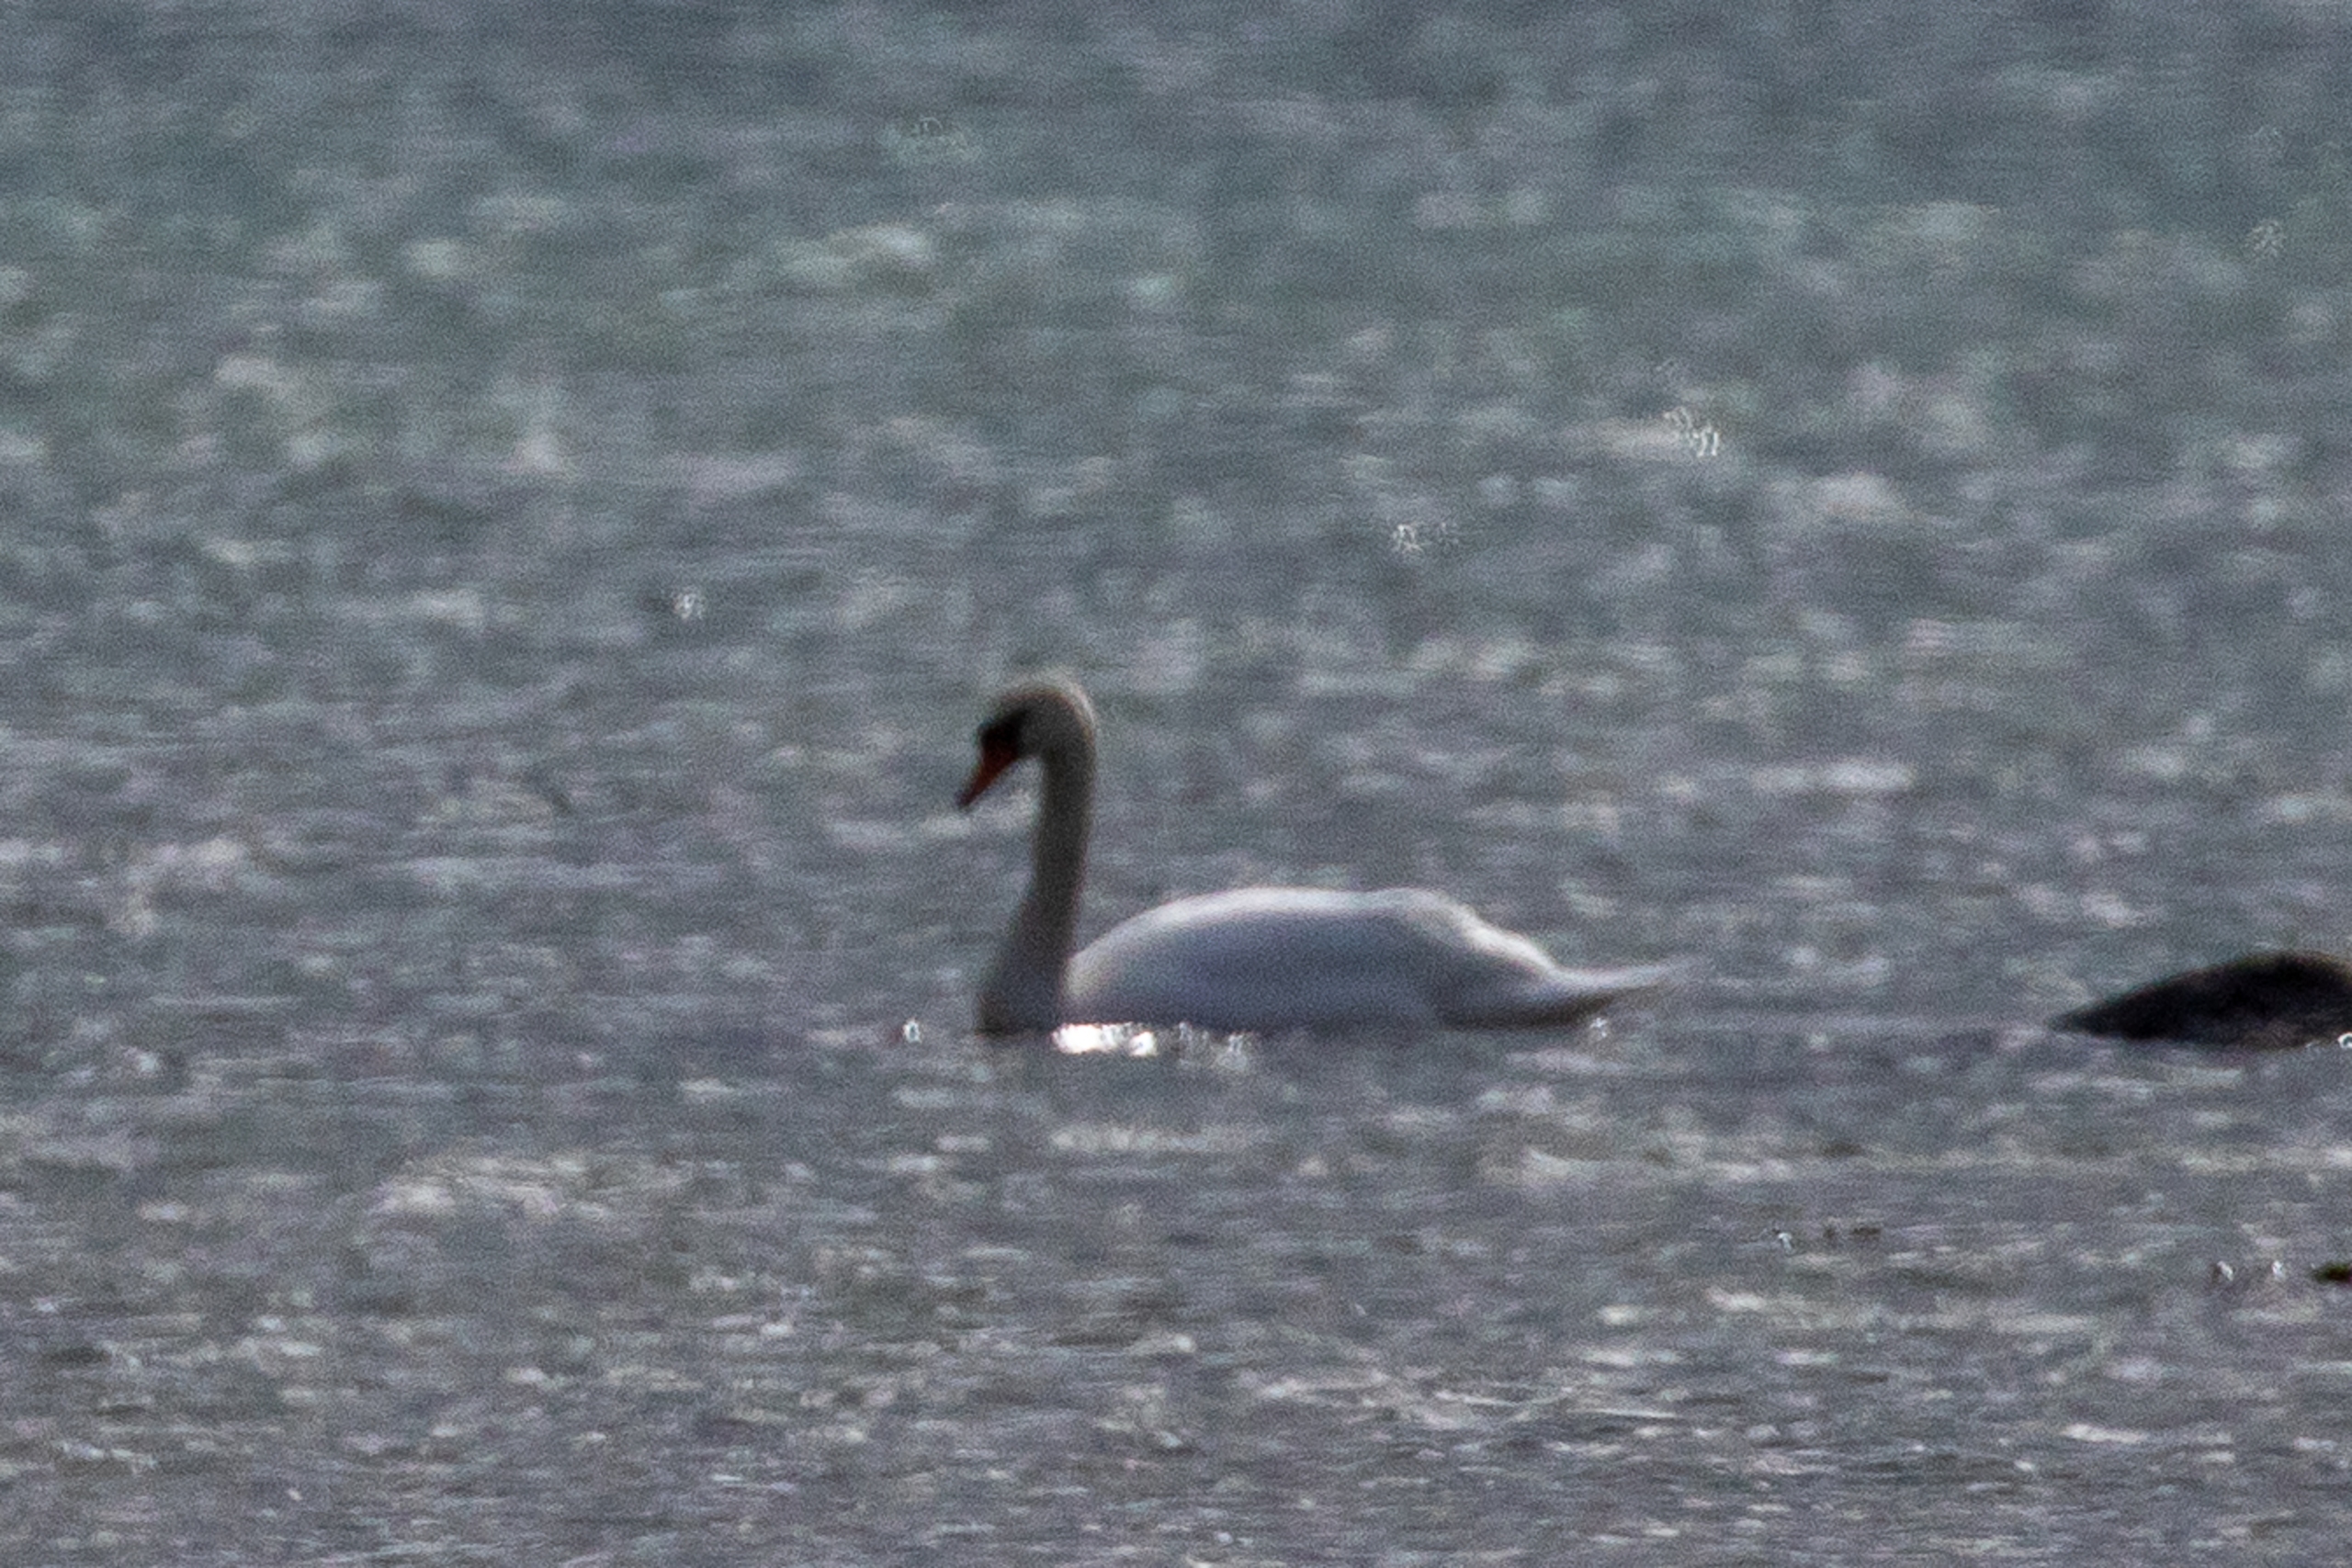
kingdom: Animalia
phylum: Chordata
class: Aves
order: Anseriformes
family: Anatidae
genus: Cygnus
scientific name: Cygnus olor
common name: Knopsvane
